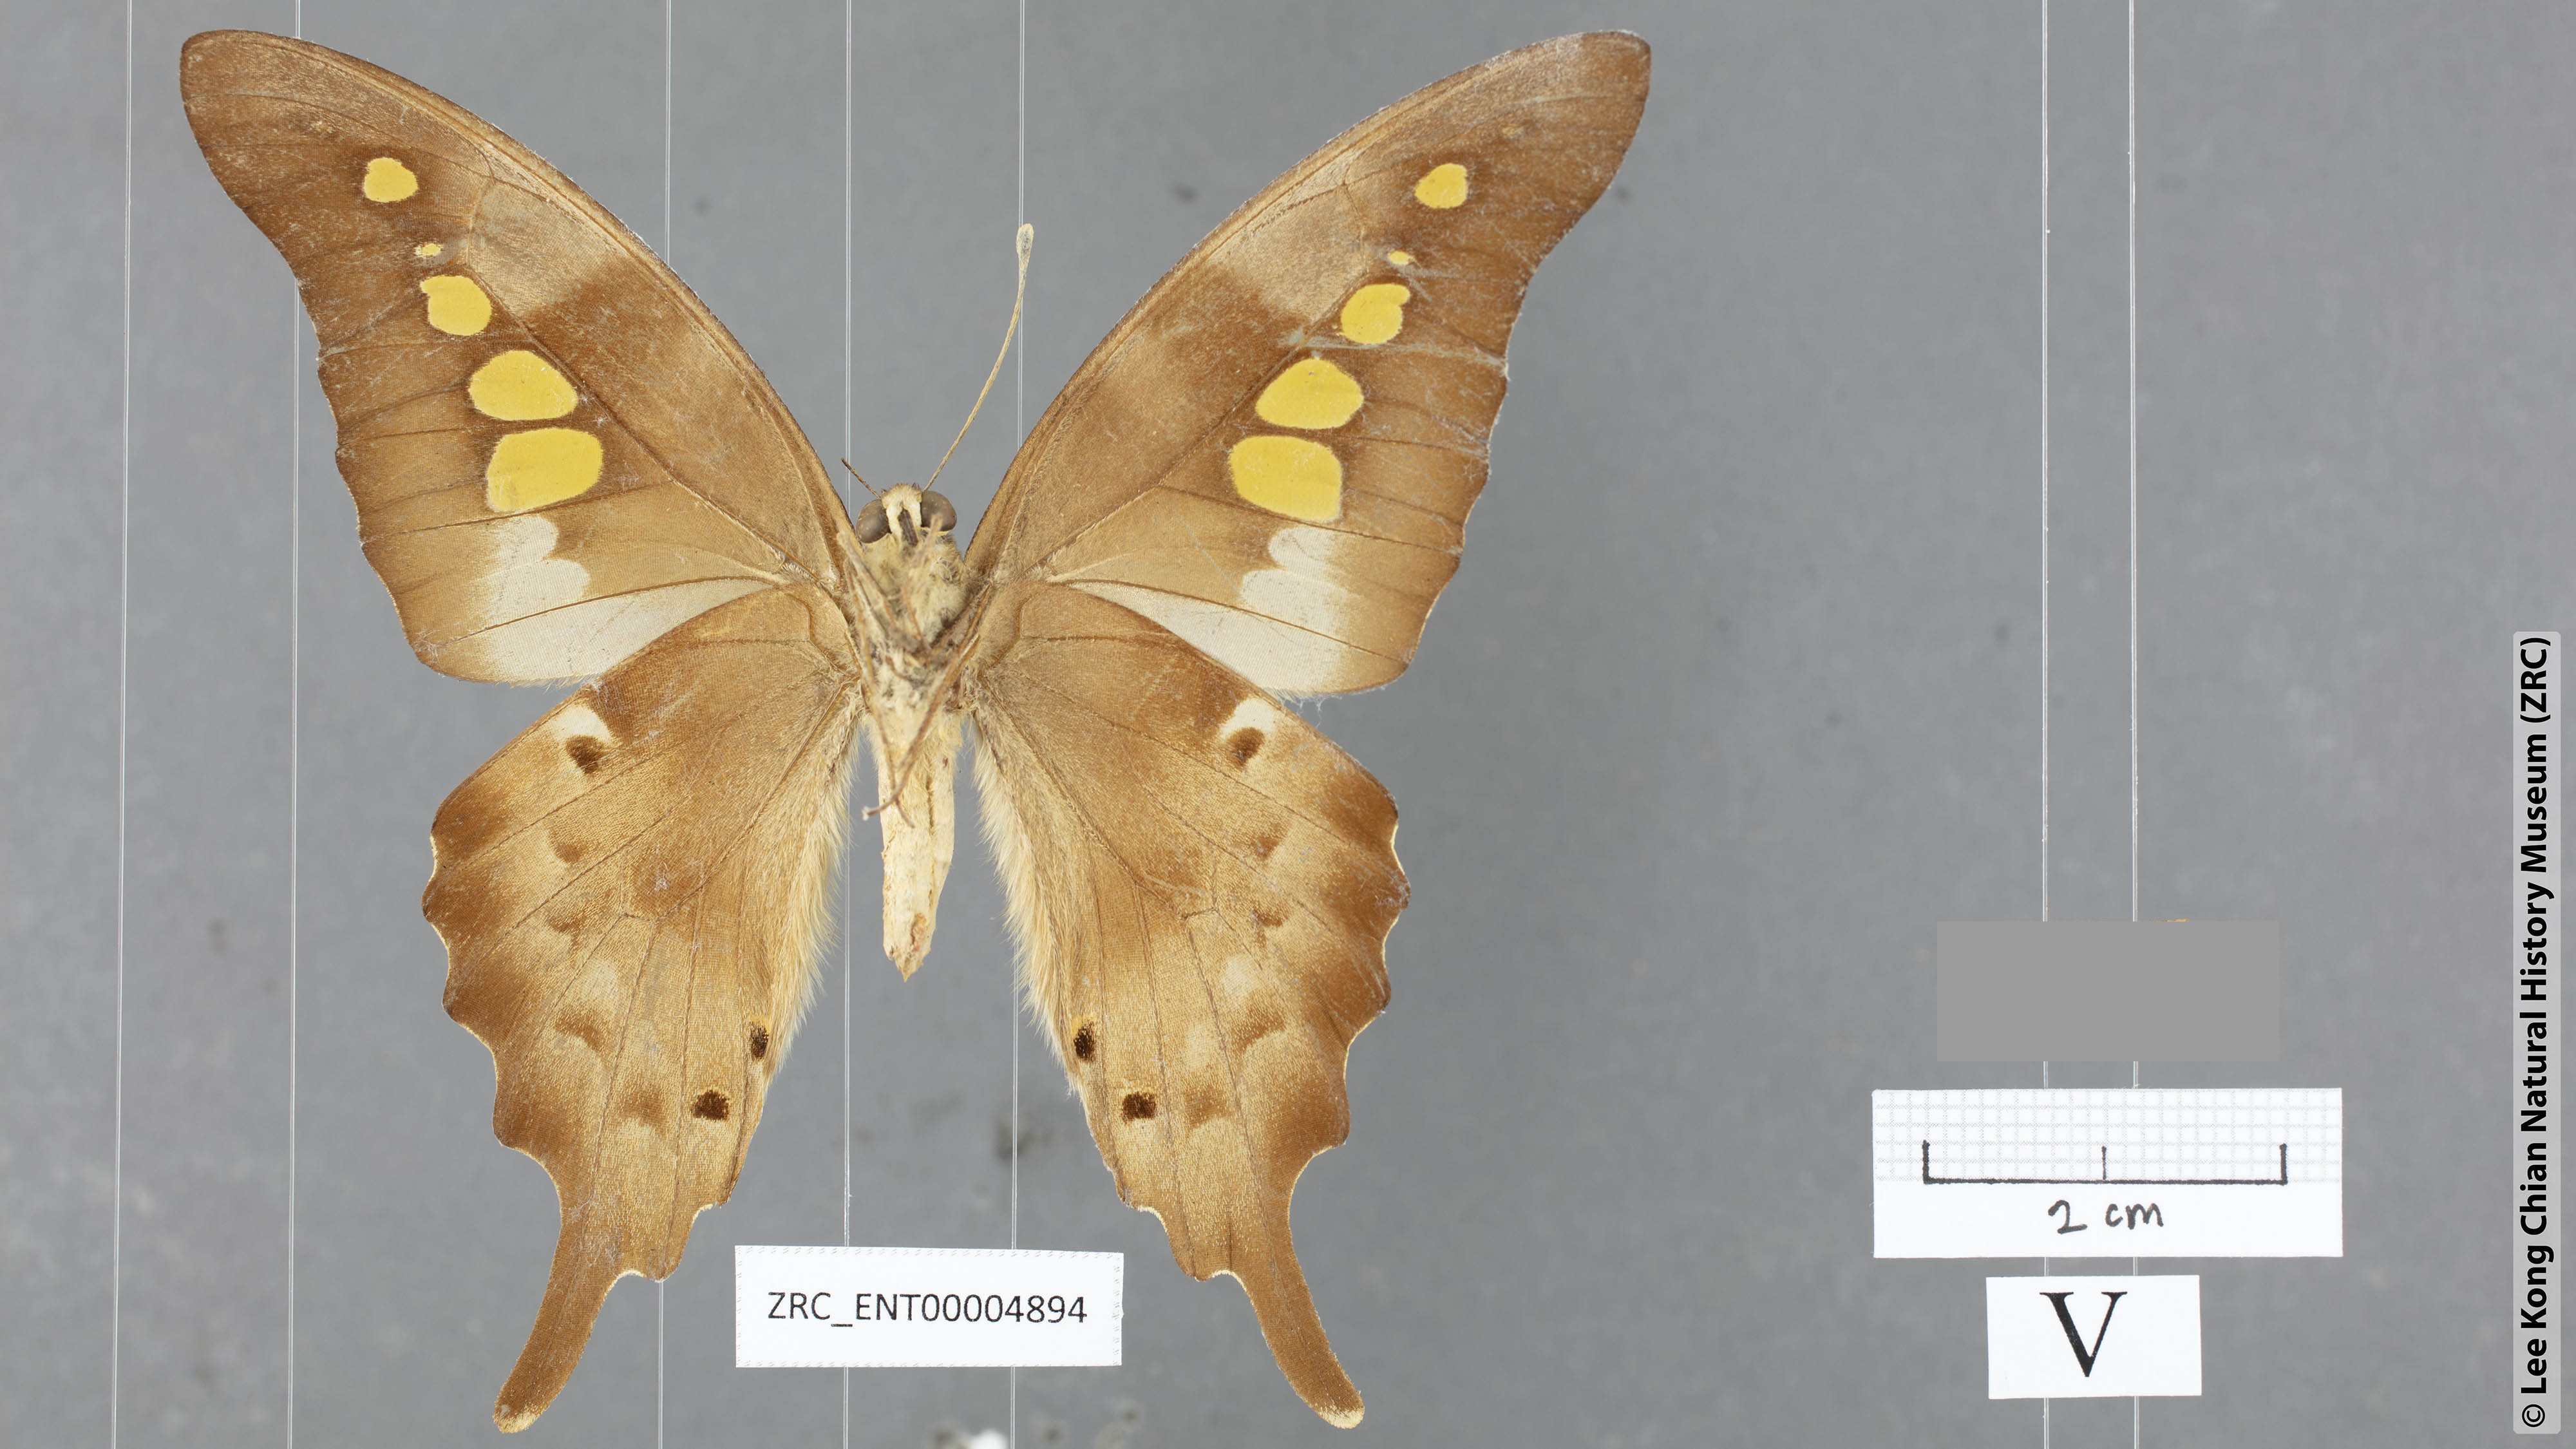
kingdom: Animalia
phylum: Arthropoda
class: Insecta
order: Lepidoptera
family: Papilionidae
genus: Graphium
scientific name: Graphium empedovana
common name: Malayan yellowbottle
